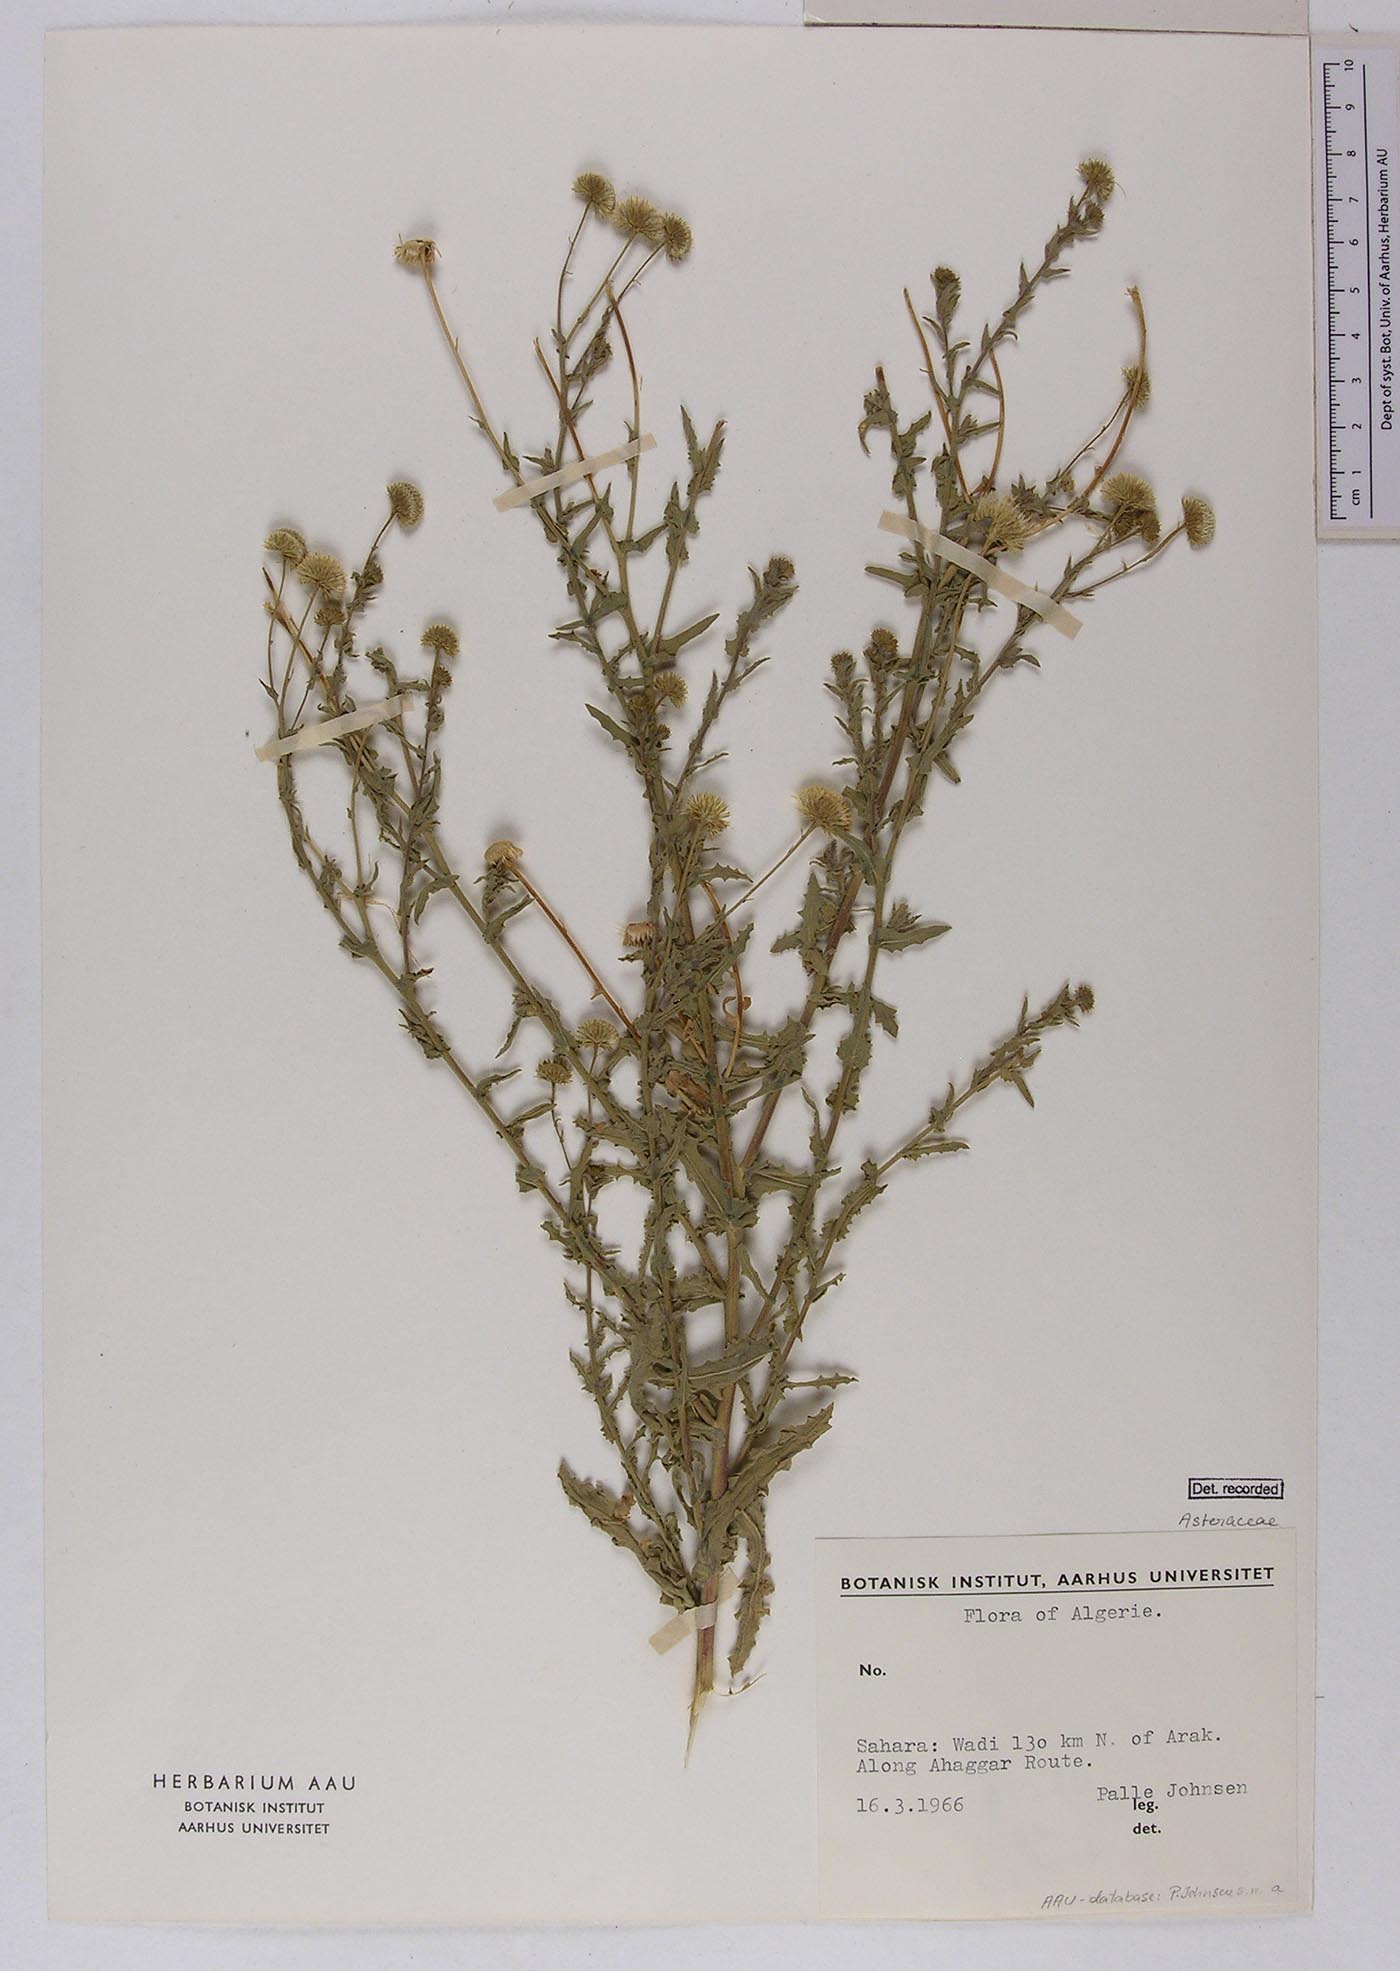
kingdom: Plantae
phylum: Tracheophyta
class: Magnoliopsida
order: Asterales
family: Asteraceae
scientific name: Asteraceae
